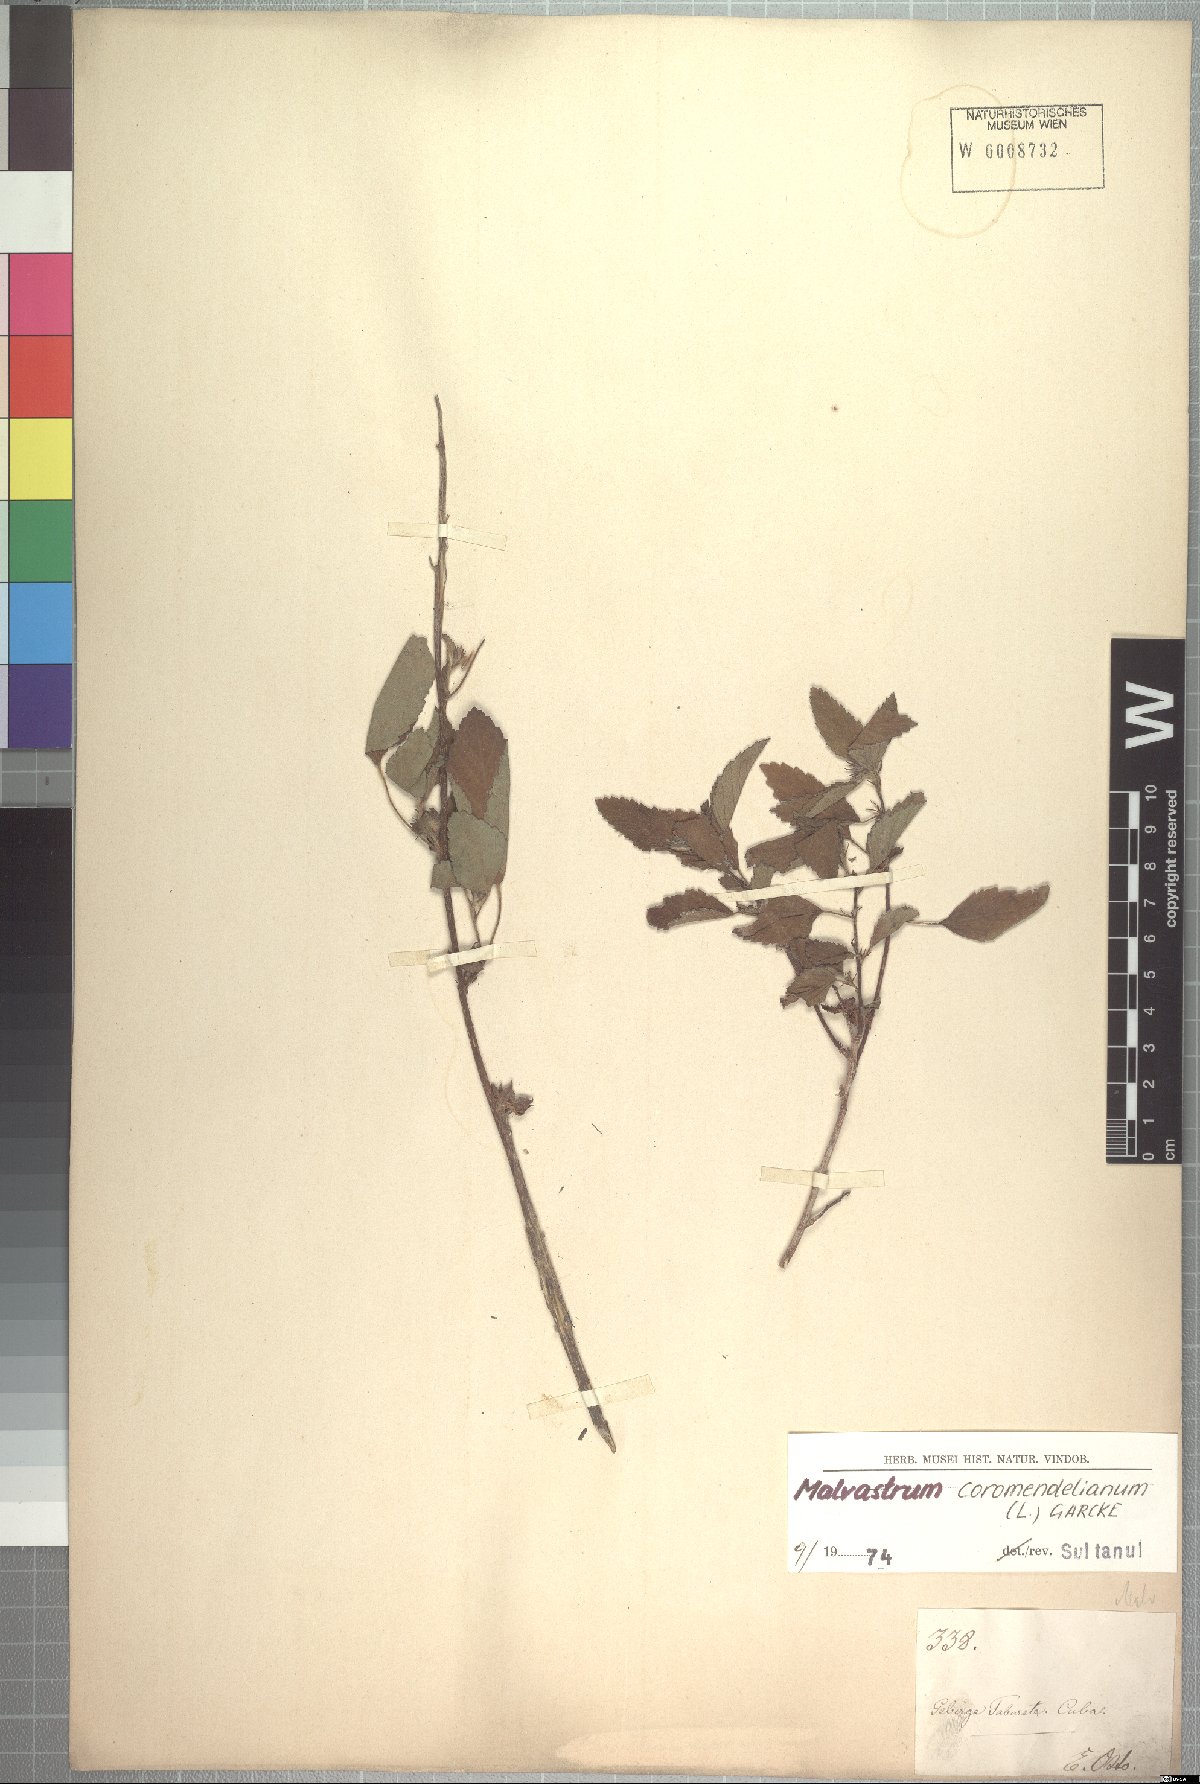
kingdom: Plantae
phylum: Tracheophyta
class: Magnoliopsida
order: Malvales
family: Malvaceae
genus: Malvastrum
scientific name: Malvastrum coromandelianum
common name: Threelobe false mallow
